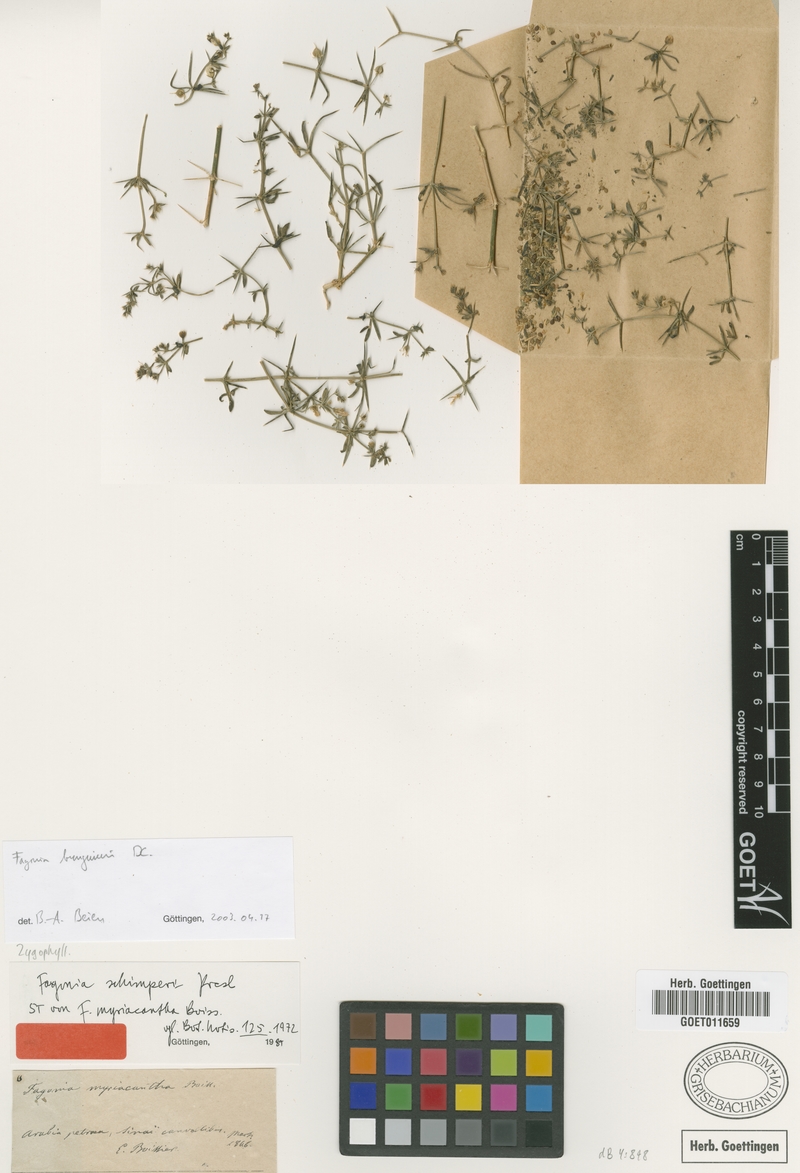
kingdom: Plantae
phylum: Tracheophyta
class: Magnoliopsida
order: Zygophyllales
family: Zygophyllaceae
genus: Fagonia
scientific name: Fagonia bruguieri
